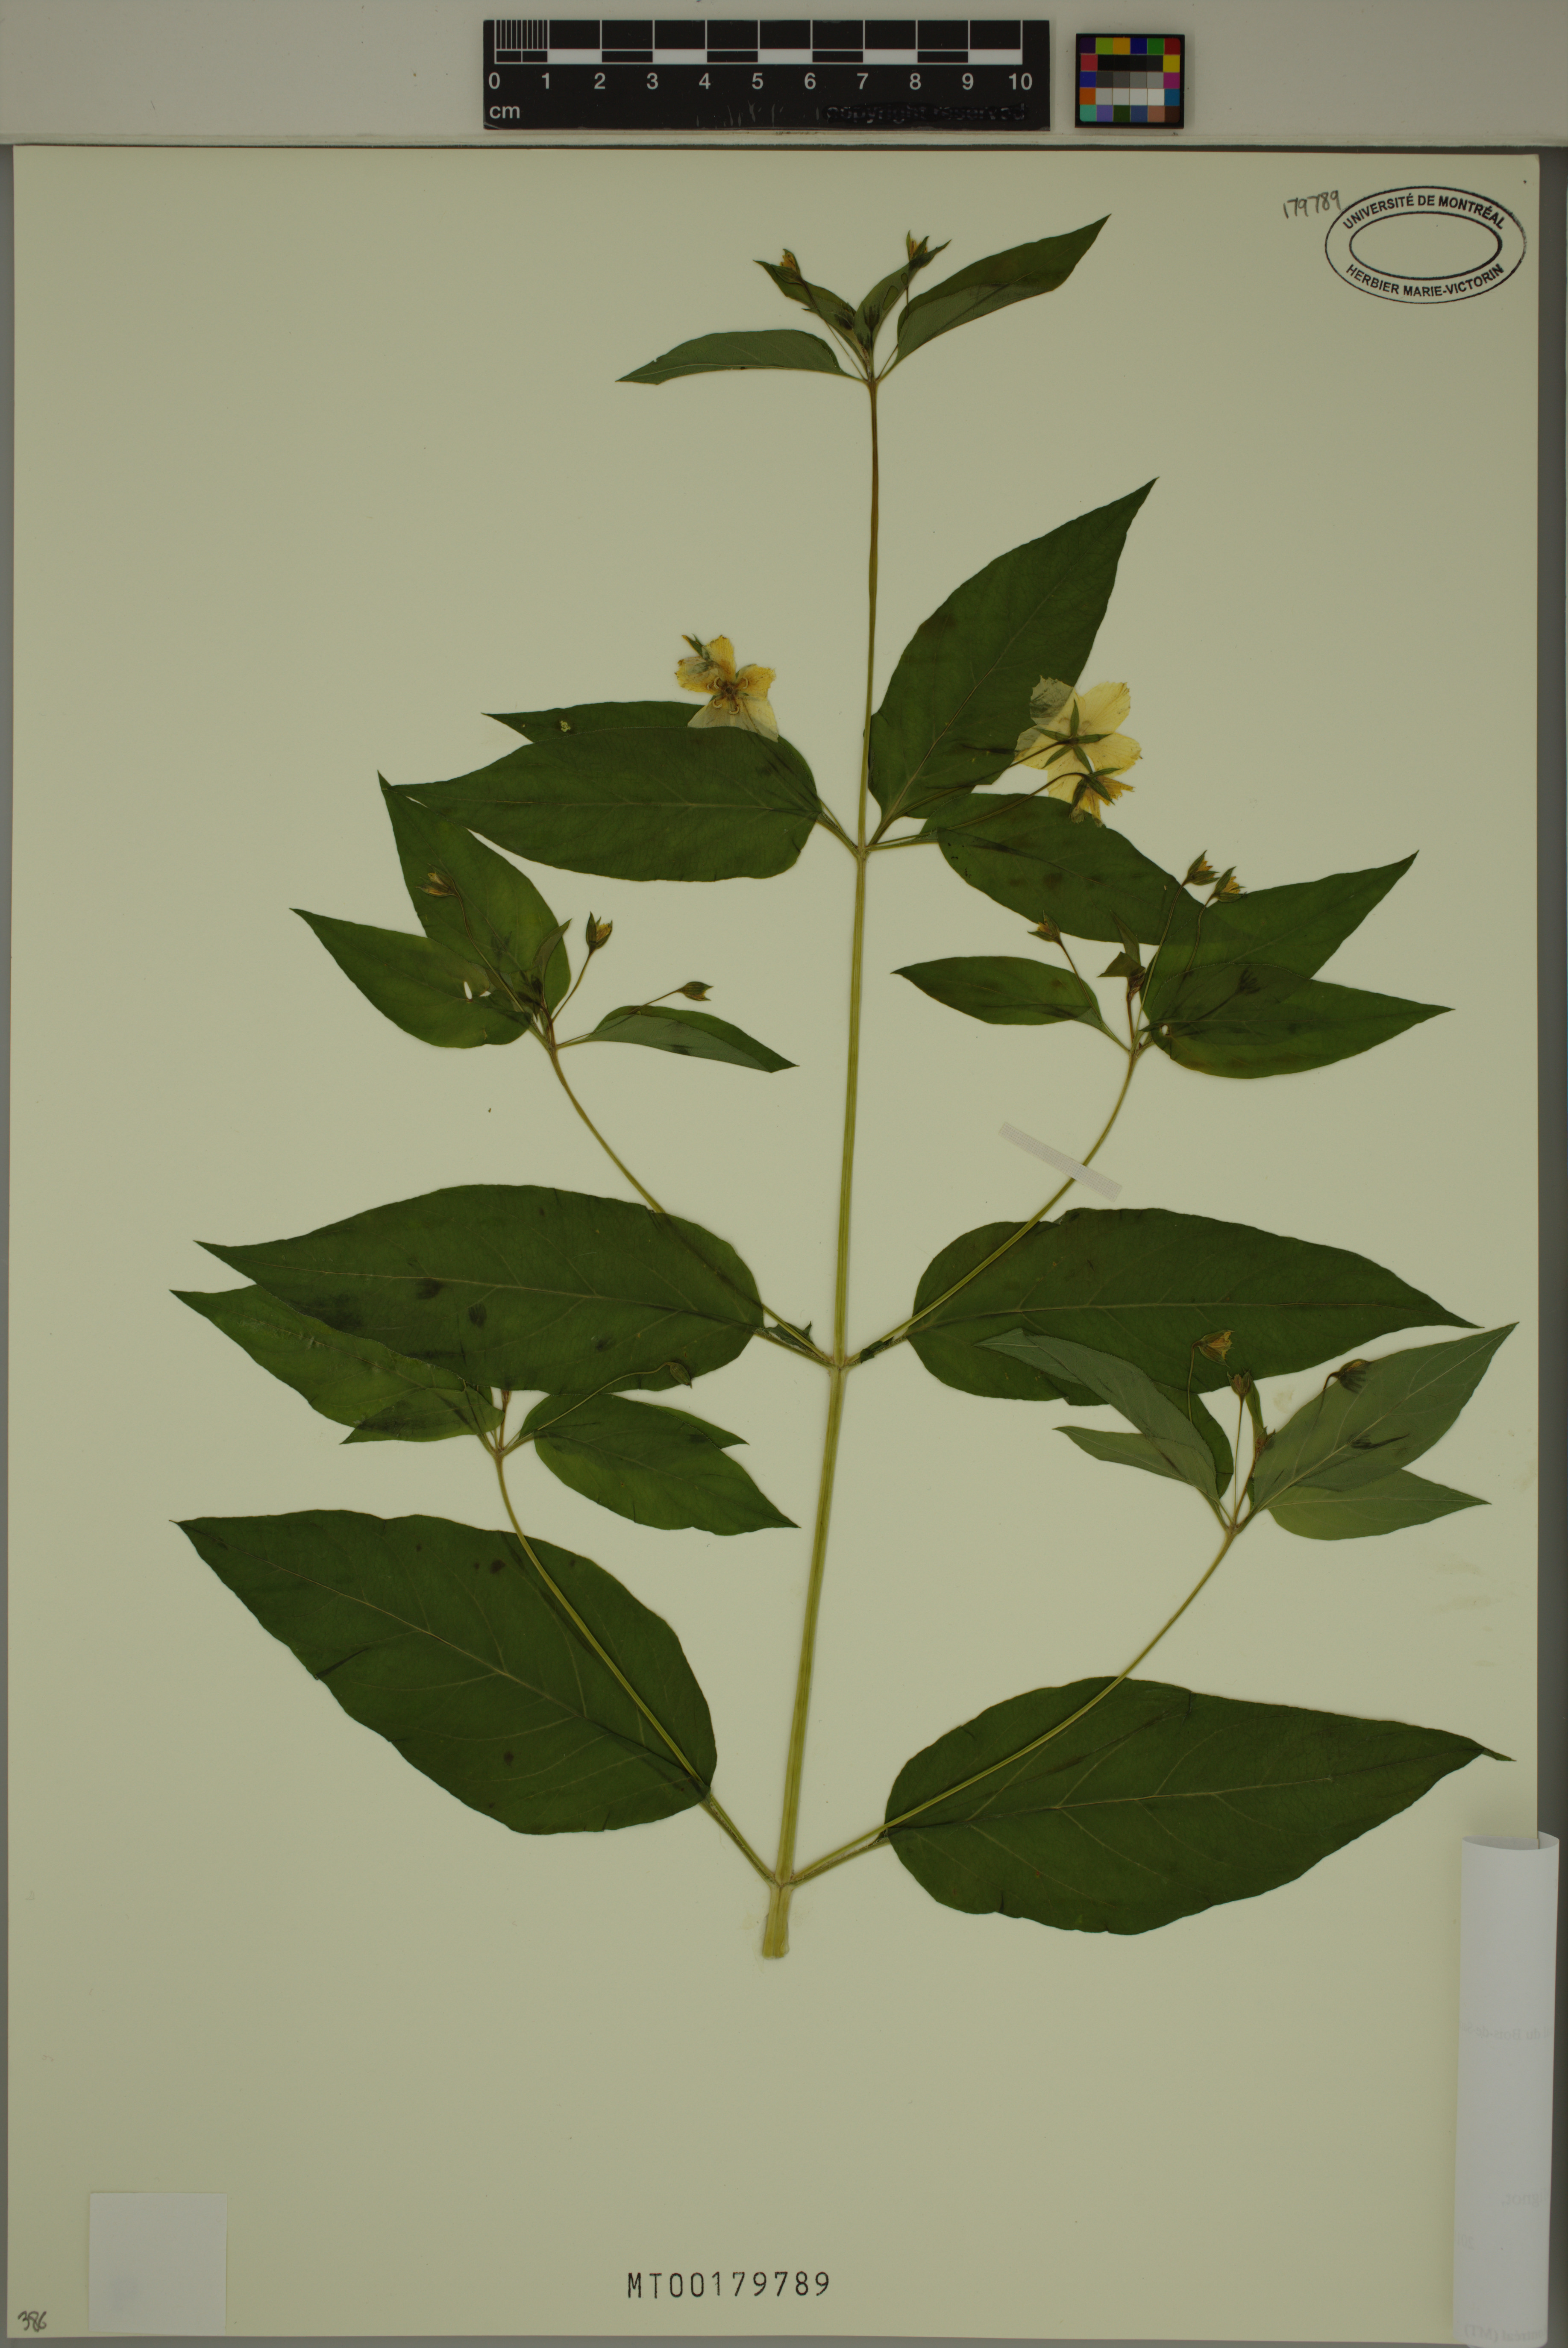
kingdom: Plantae
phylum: Tracheophyta
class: Magnoliopsida
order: Ericales
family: Primulaceae
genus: Lysimachia
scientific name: Lysimachia ciliata
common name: Fringed loosestrife
